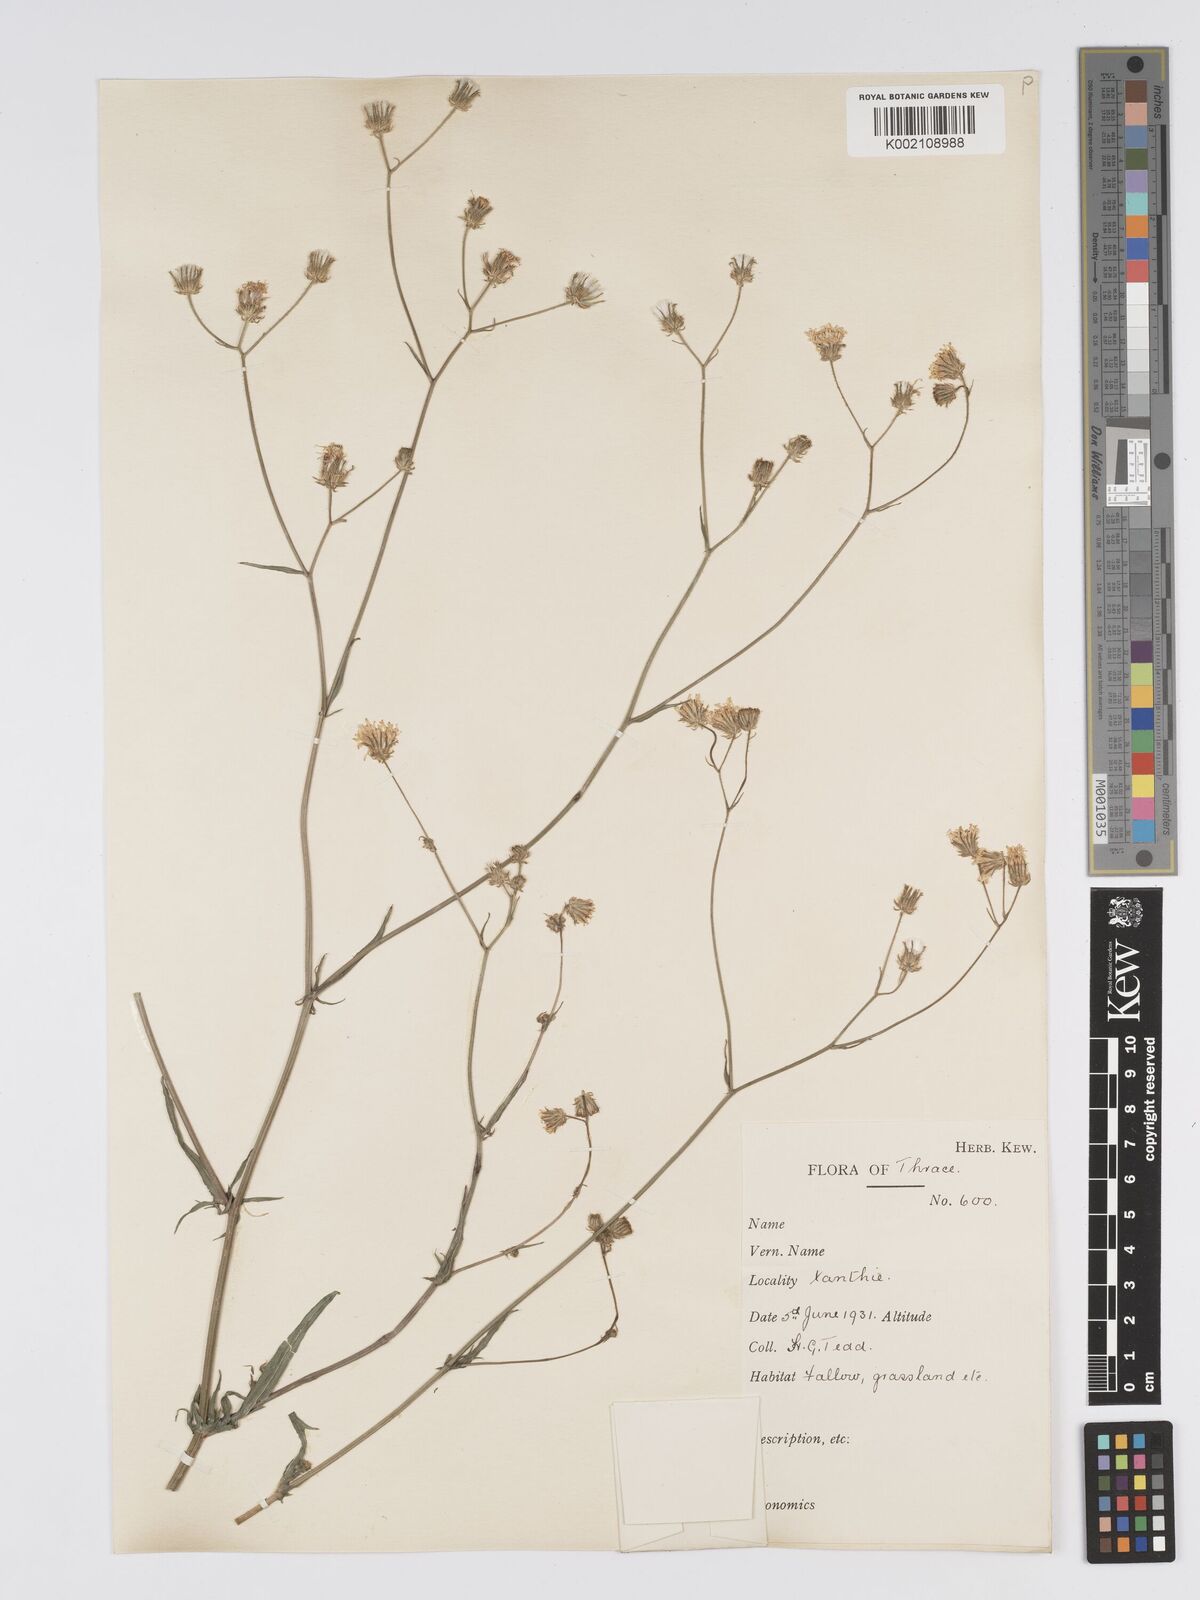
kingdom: Plantae
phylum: Tracheophyta
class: Magnoliopsida
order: Asterales
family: Asteraceae
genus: Crepis
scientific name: Crepis setosa
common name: Bristly hawk's-beard
